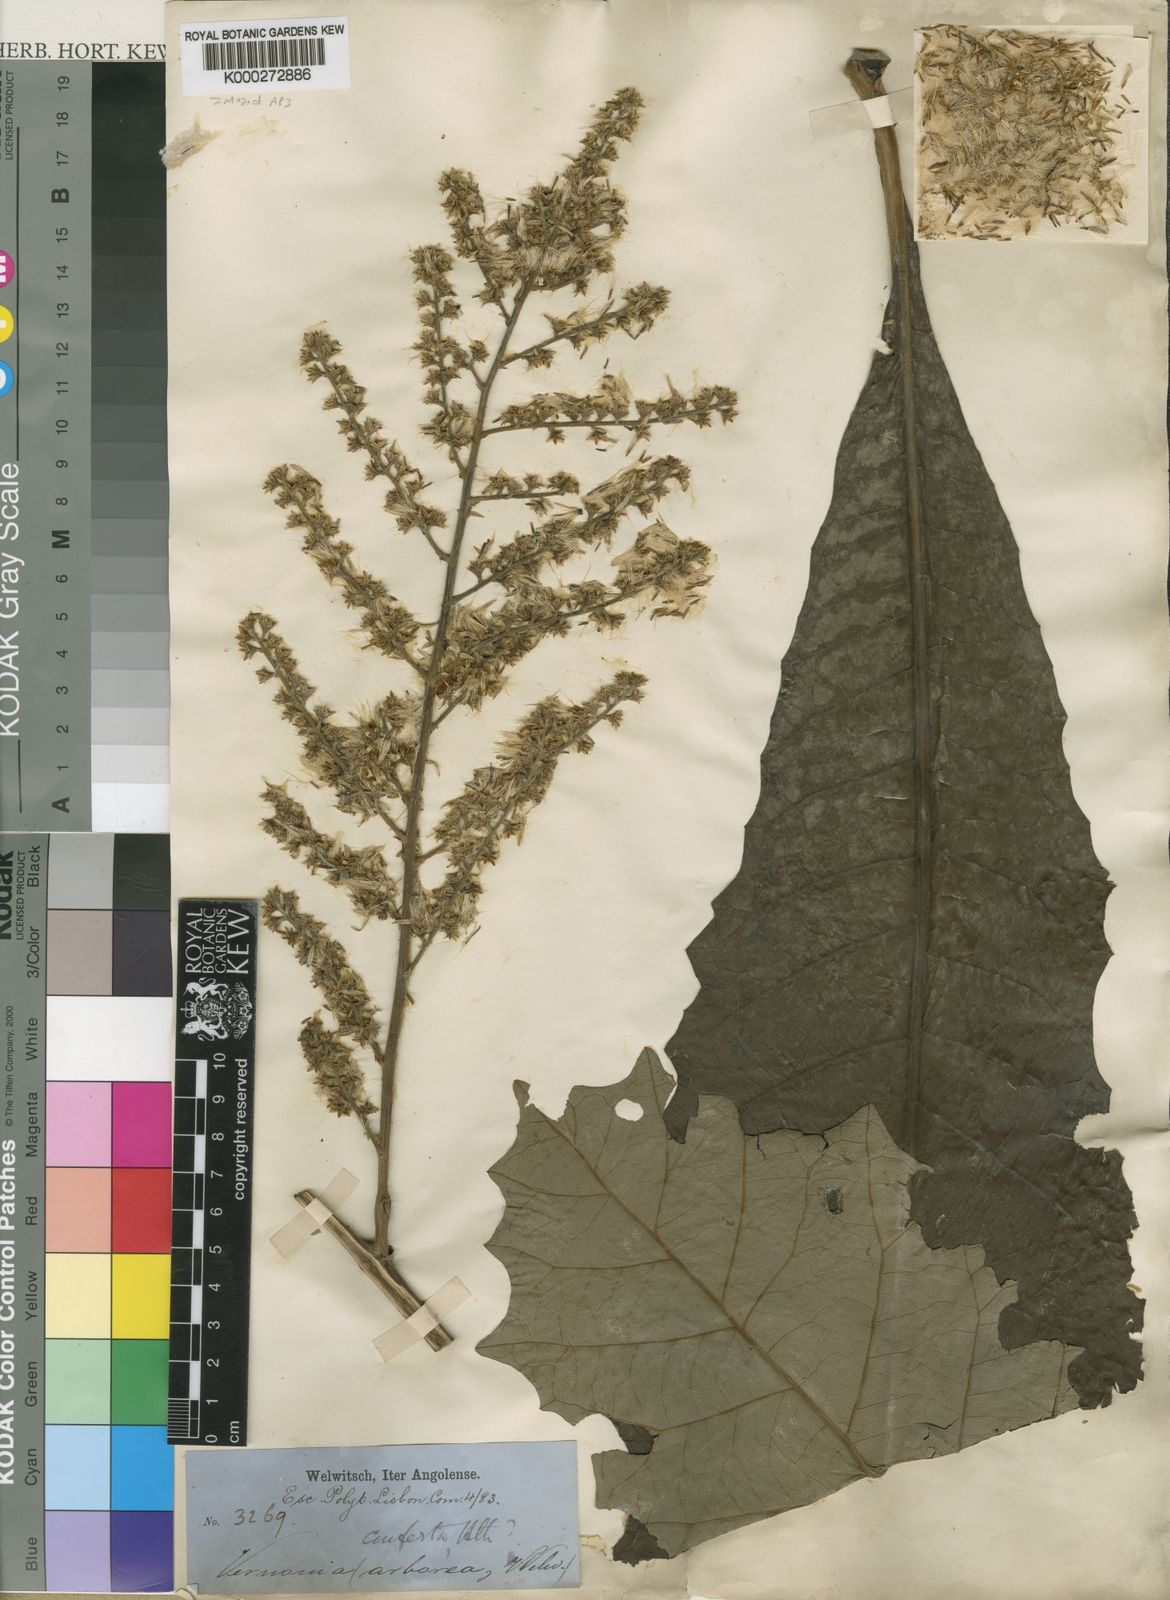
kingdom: Plantae
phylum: Tracheophyta
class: Magnoliopsida
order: Asterales
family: Asteraceae
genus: Monosis
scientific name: Monosis conferta
